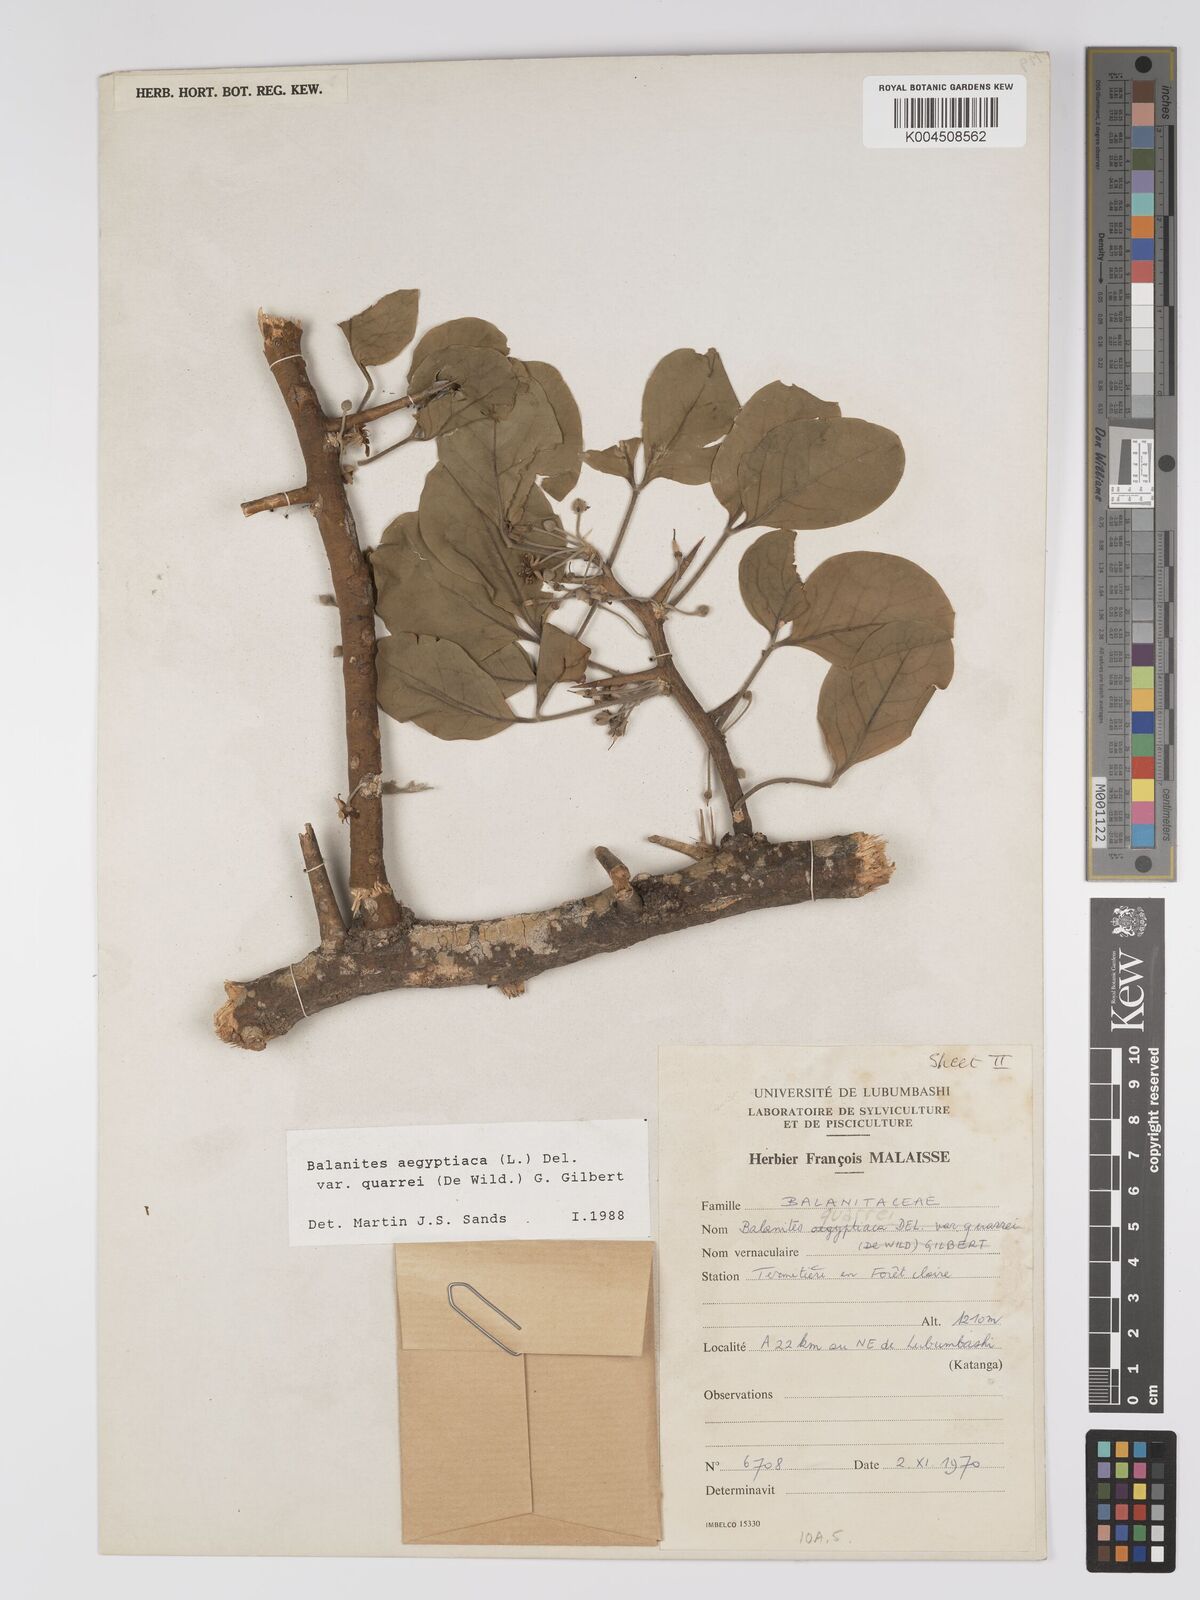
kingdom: Plantae
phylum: Tracheophyta
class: Magnoliopsida
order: Zygophyllales
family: Zygophyllaceae
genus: Balanites
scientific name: Balanites aegyptiaca
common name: Balanites
